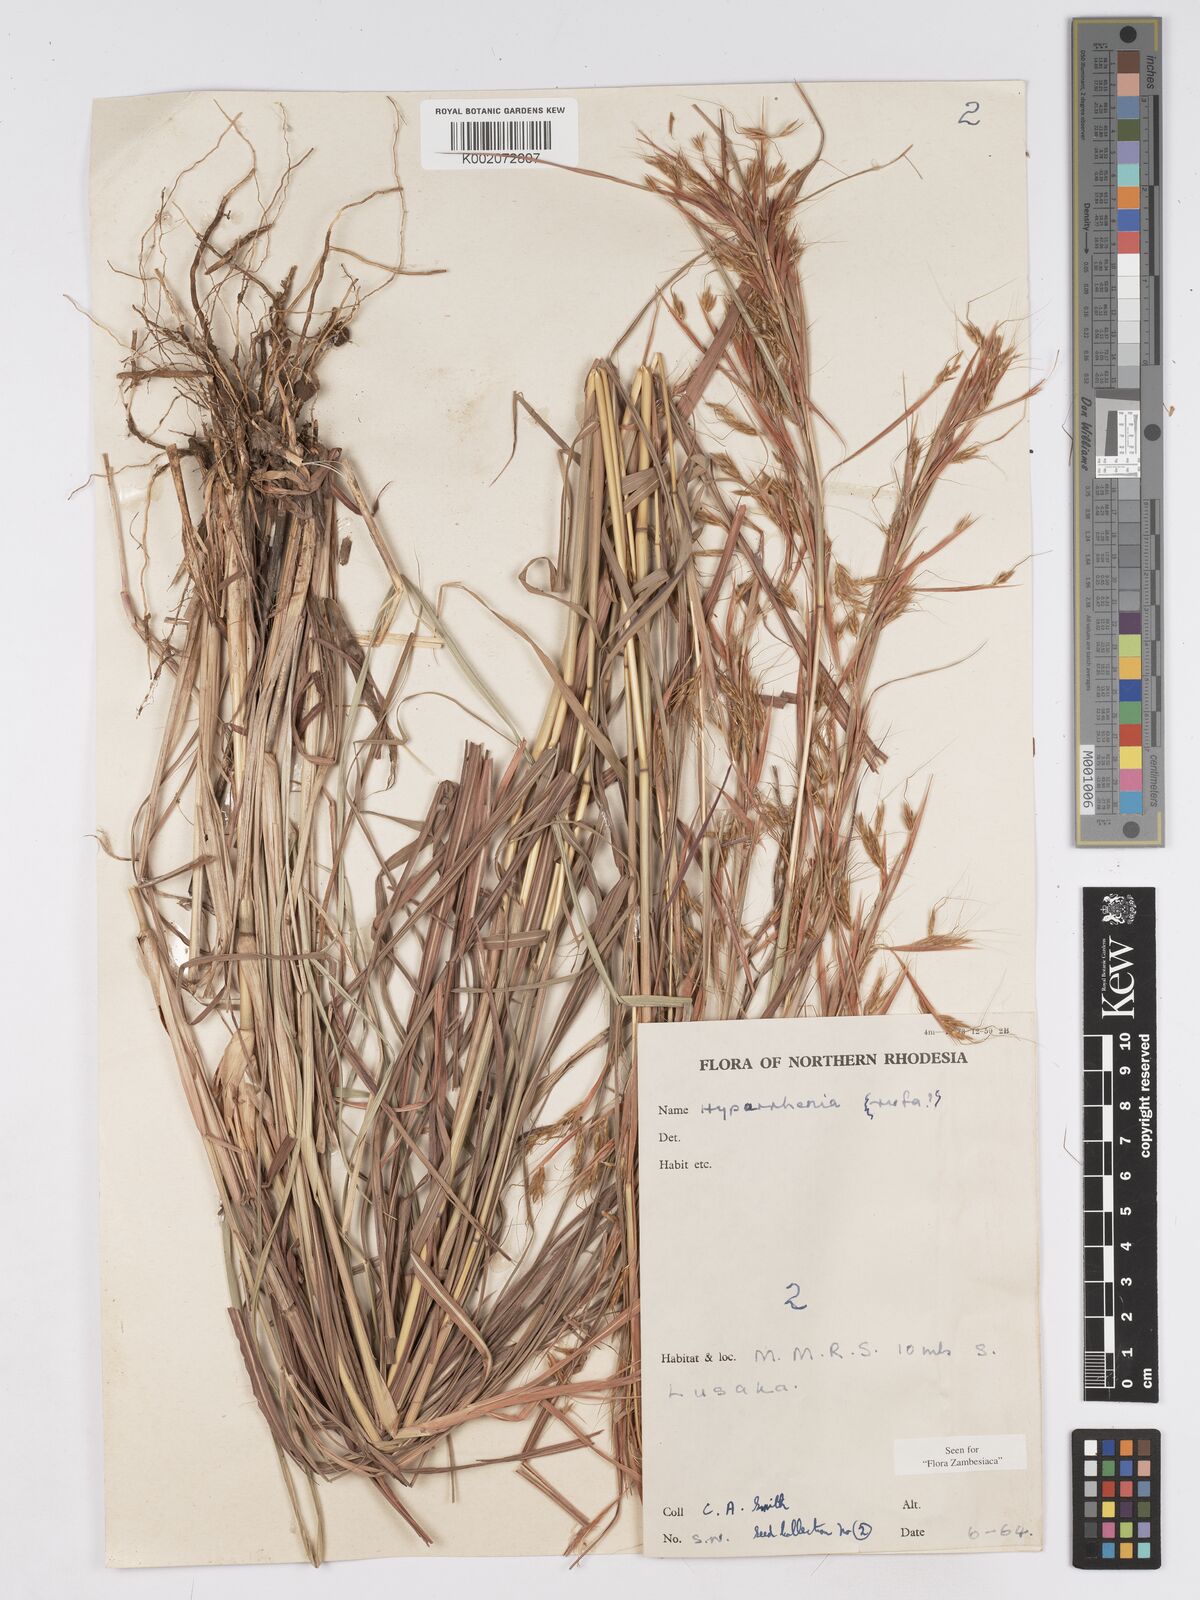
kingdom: Plantae
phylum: Tracheophyta
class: Liliopsida
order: Poales
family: Poaceae
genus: Hyparrhenia
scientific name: Hyparrhenia rufa
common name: Jaraguagrass
